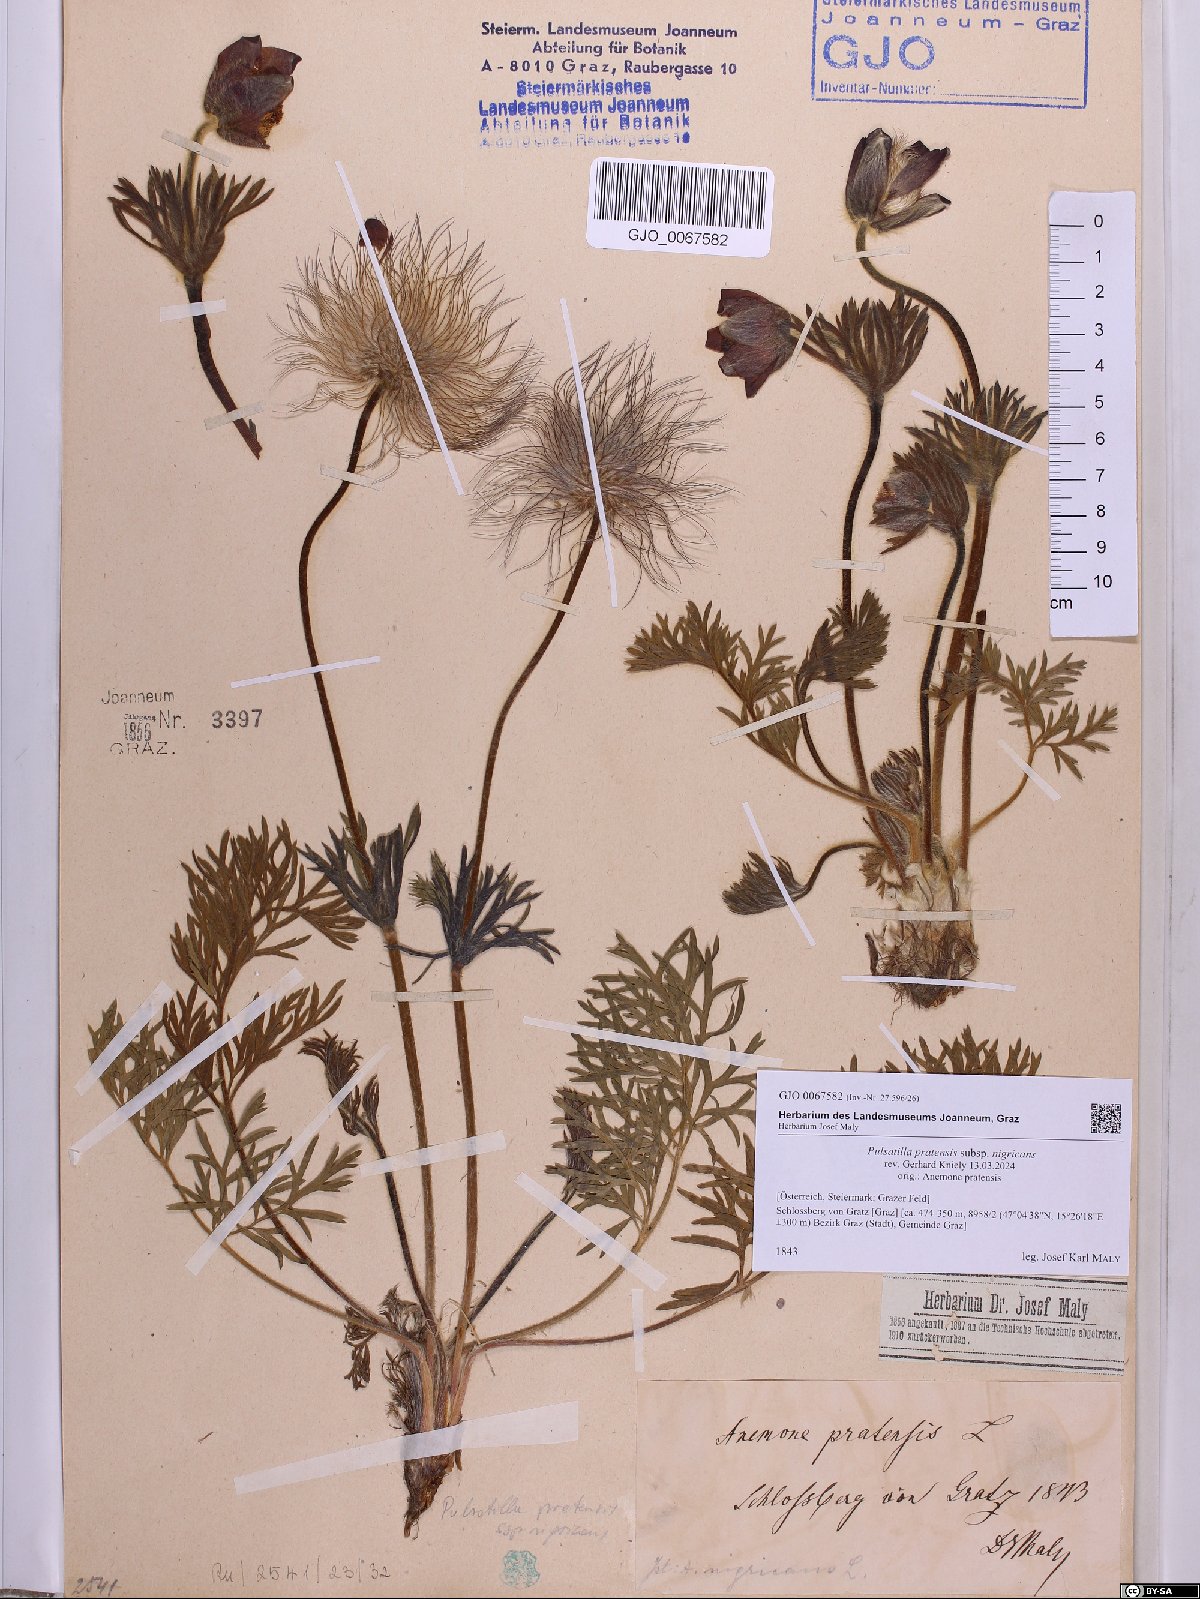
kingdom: Plantae
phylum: Tracheophyta
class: Magnoliopsida
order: Ranunculales
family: Ranunculaceae
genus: Pulsatilla
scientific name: Pulsatilla pratensis
